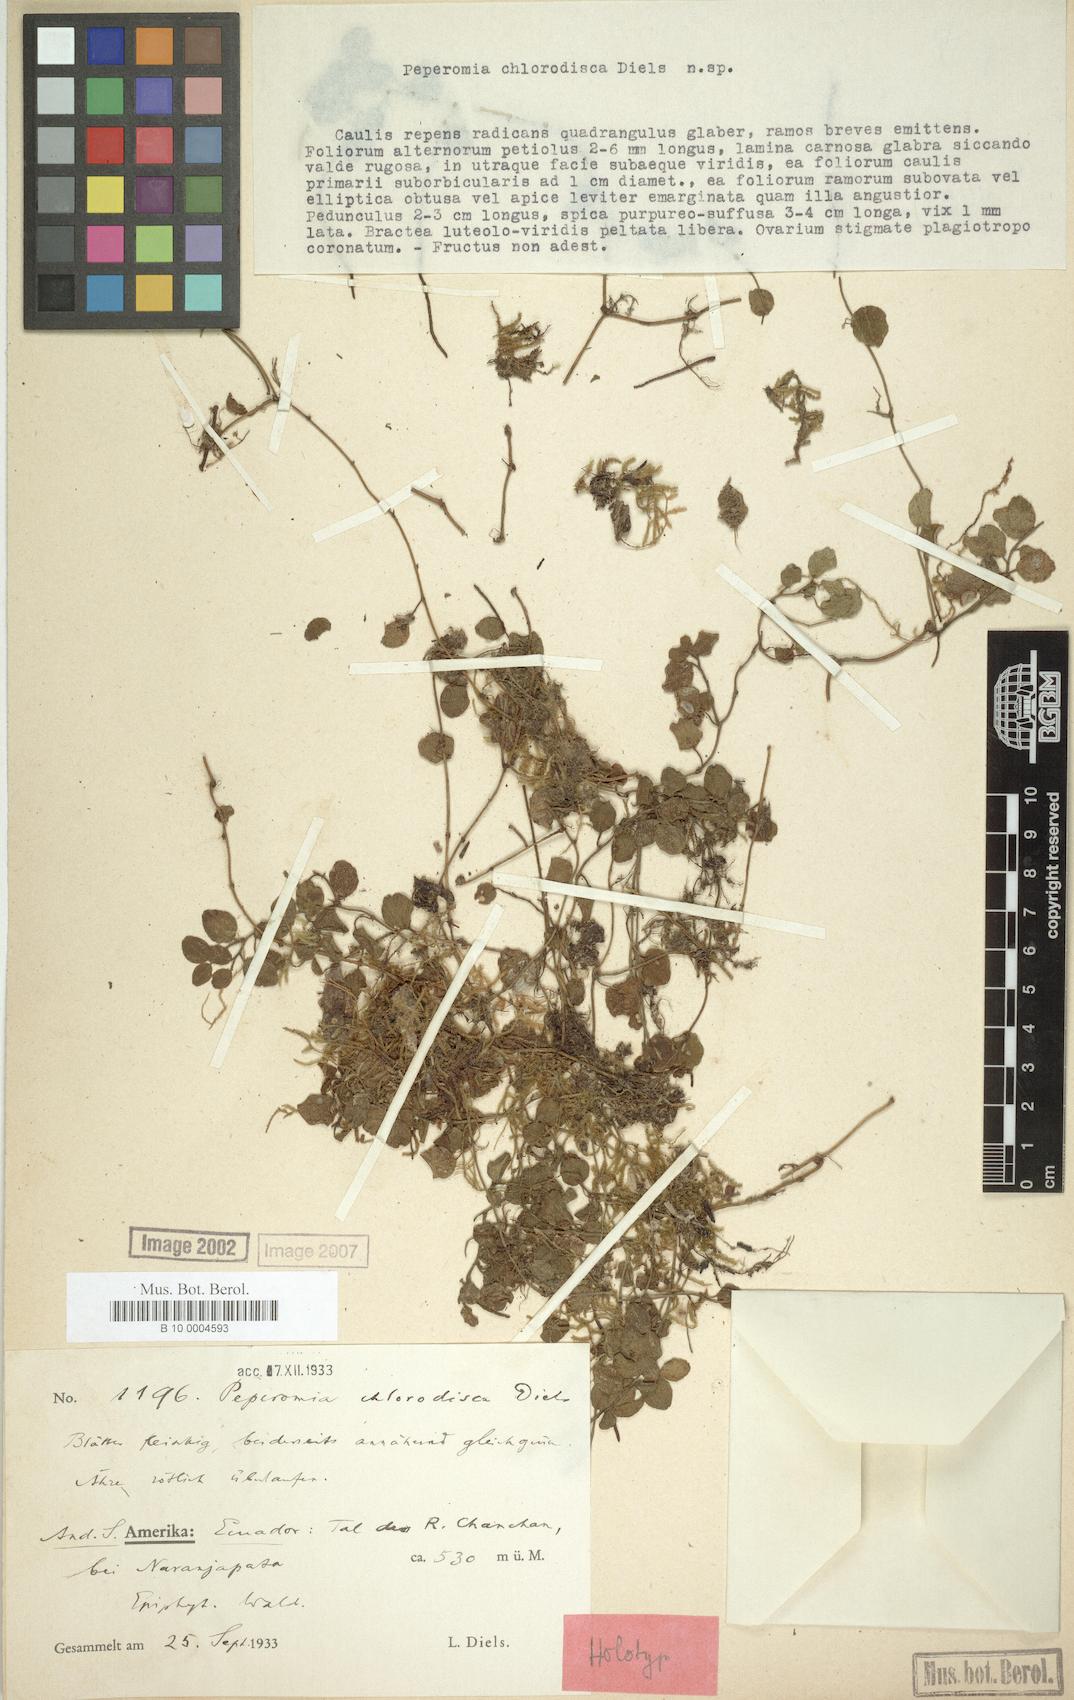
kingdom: Plantae
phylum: Tracheophyta
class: Magnoliopsida
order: Piperales
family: Piperaceae
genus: Peperomia
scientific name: Peperomia chlorodisca
